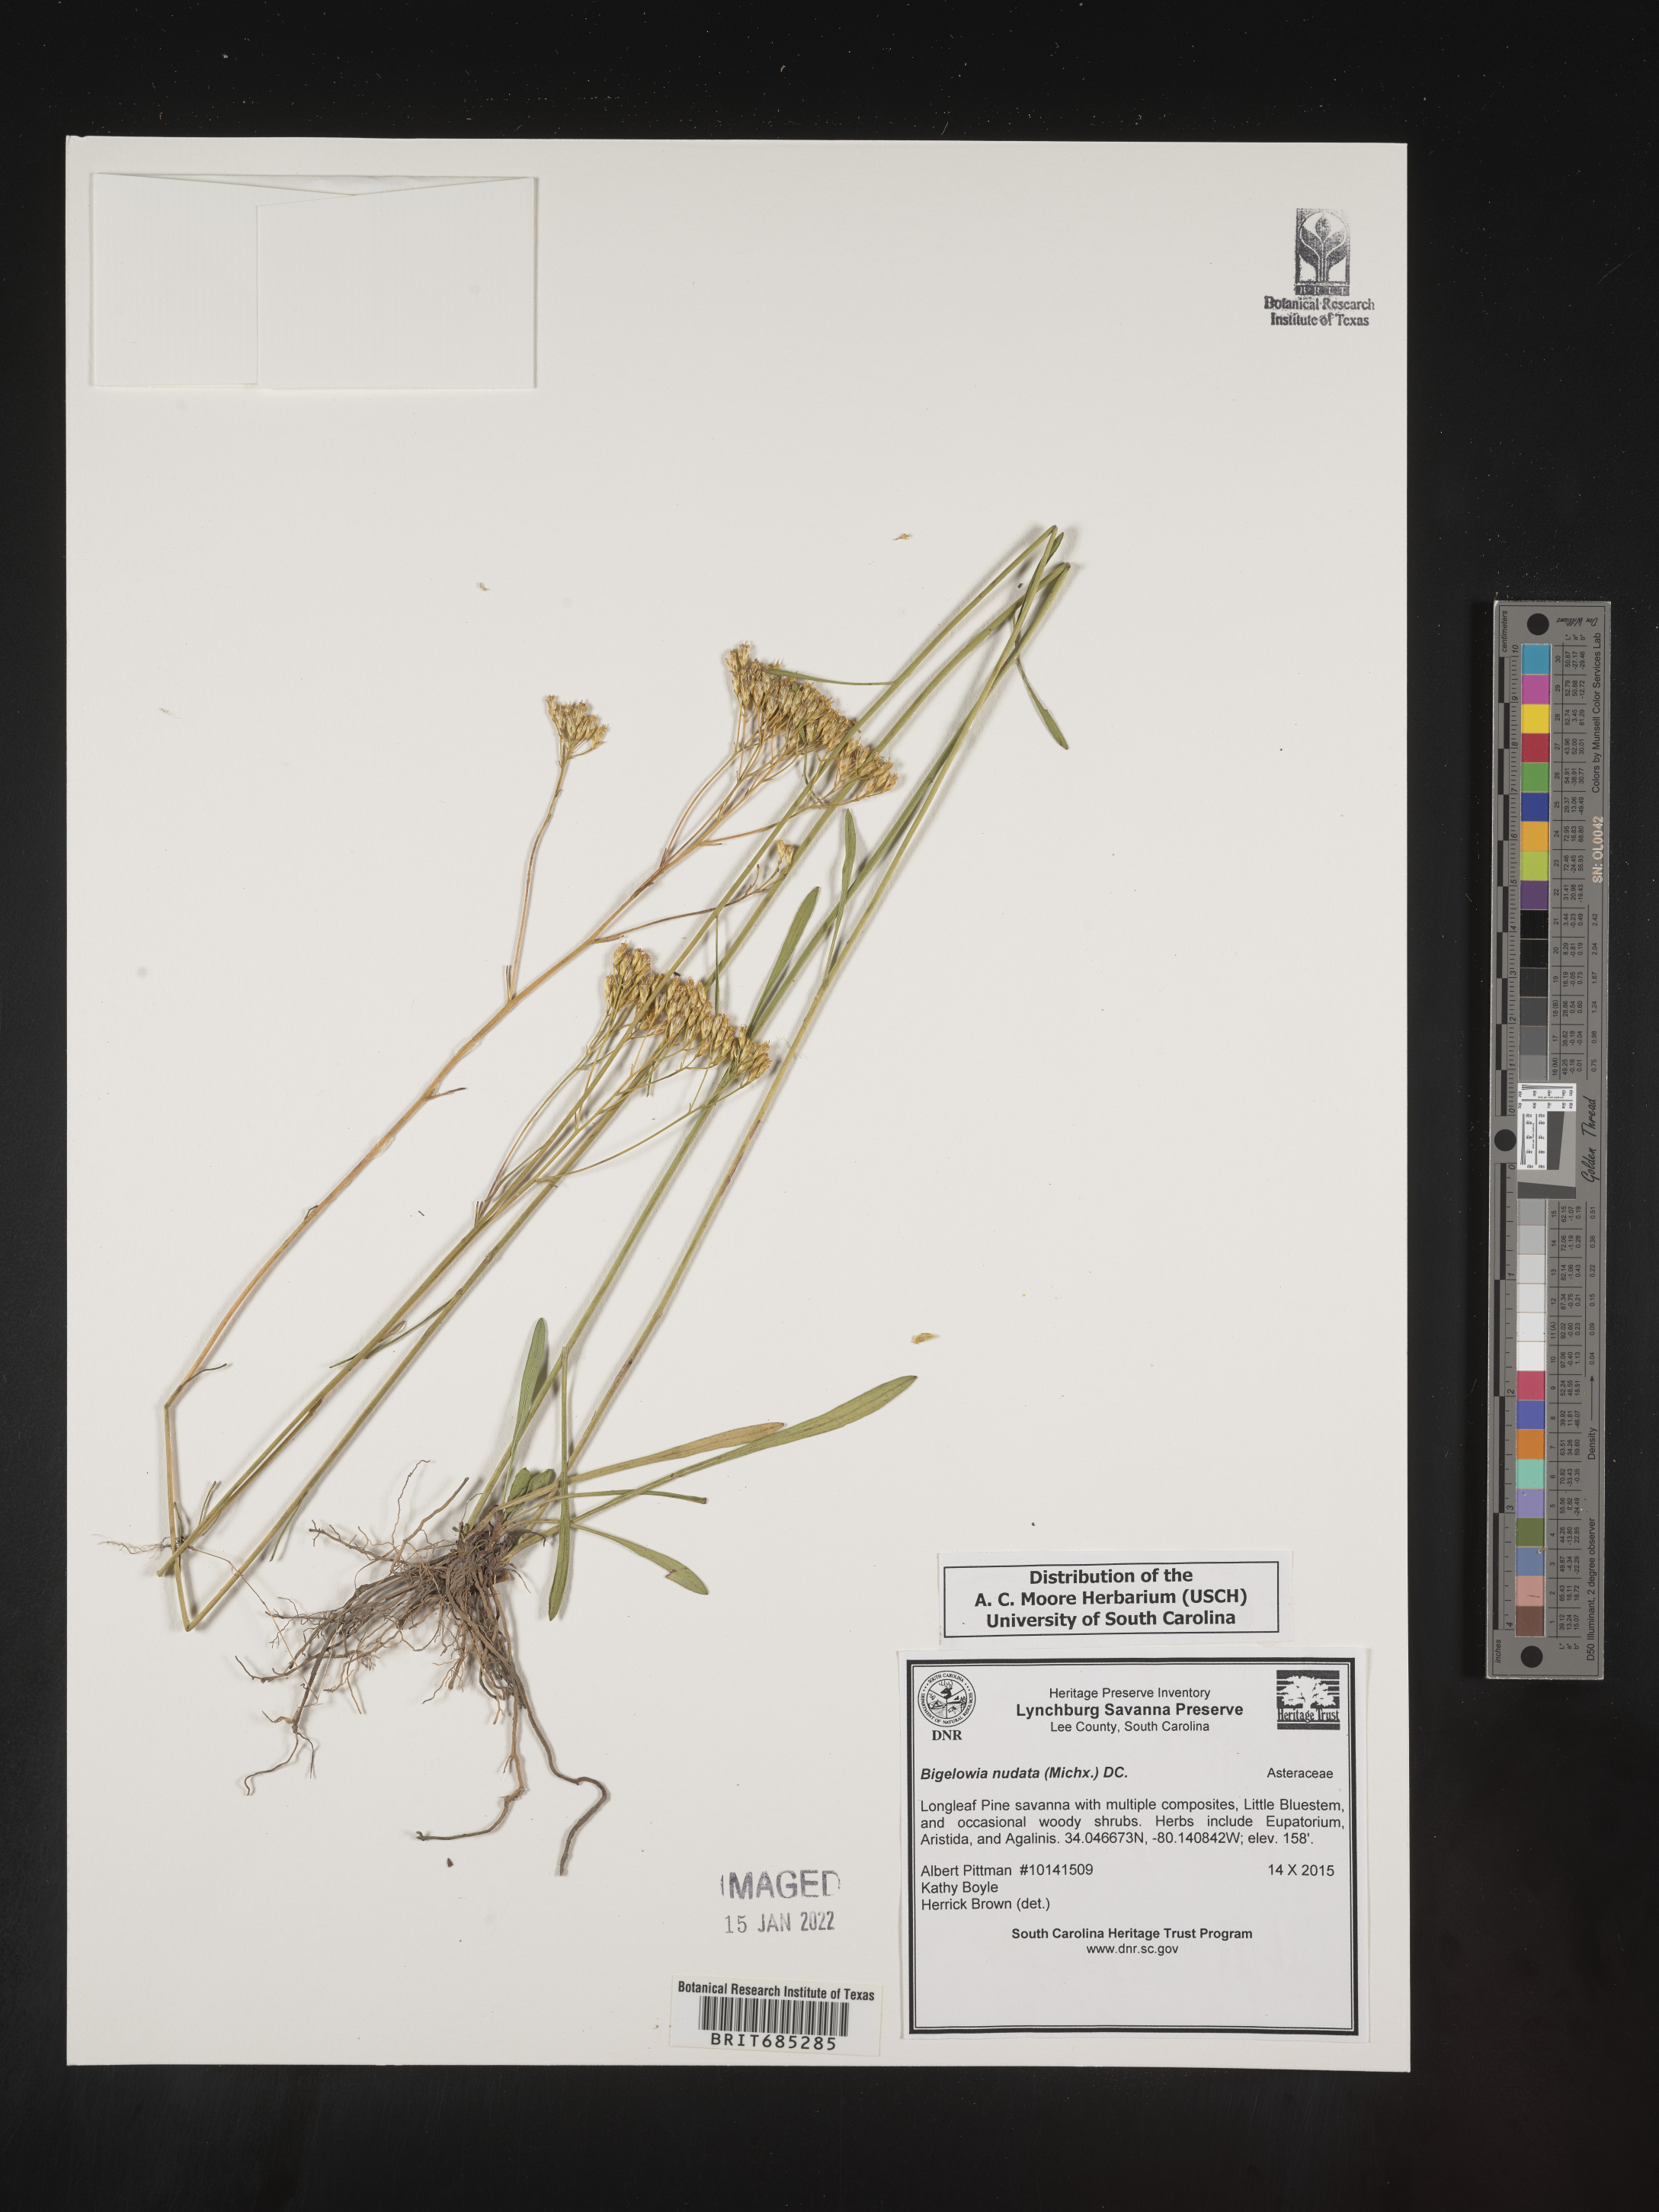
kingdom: Plantae
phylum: Tracheophyta
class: Magnoliopsida
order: Asterales
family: Asteraceae
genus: Bigelowia
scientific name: Bigelowia nudata
